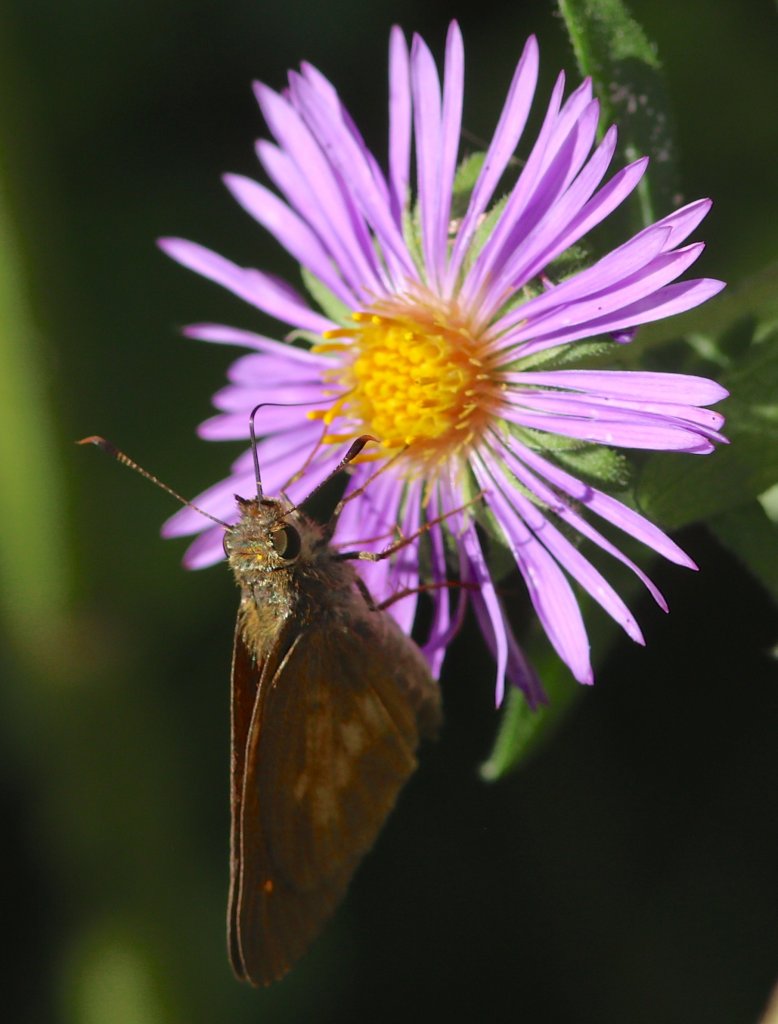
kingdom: Animalia
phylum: Arthropoda
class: Insecta
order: Lepidoptera
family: Hesperiidae
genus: Poanes
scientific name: Poanes viator
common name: Broad-winged Skipper
